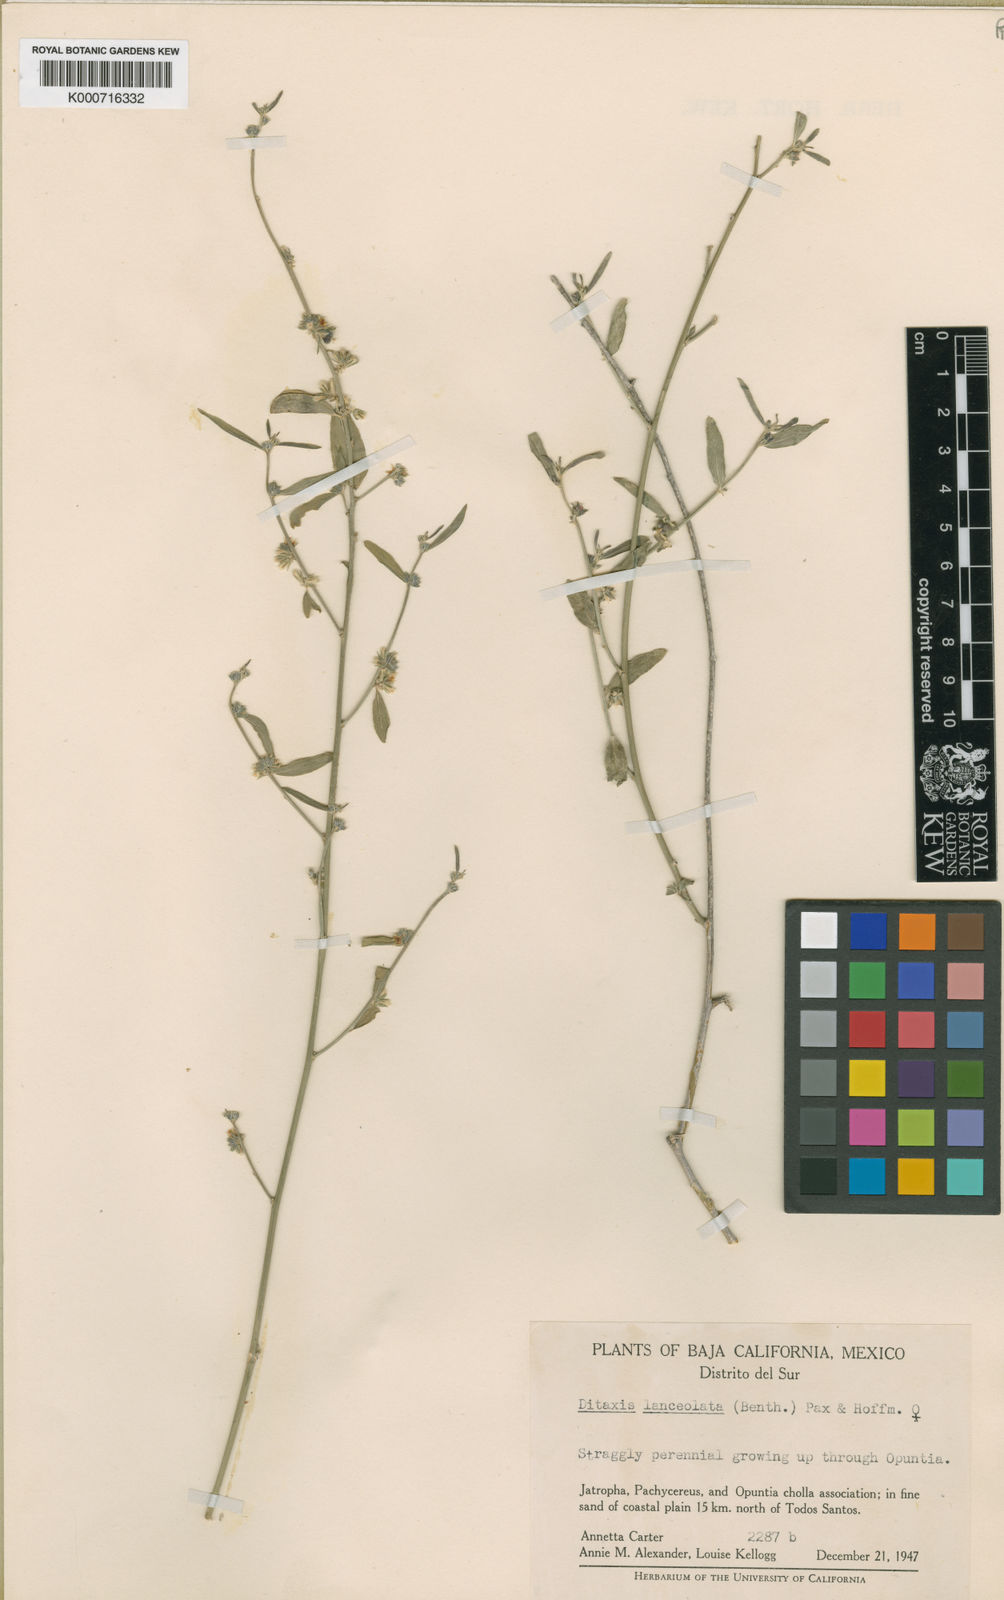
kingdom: Plantae
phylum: Tracheophyta
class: Magnoliopsida
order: Malpighiales
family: Euphorbiaceae
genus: Ditaxis
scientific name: Ditaxis lanceolata
